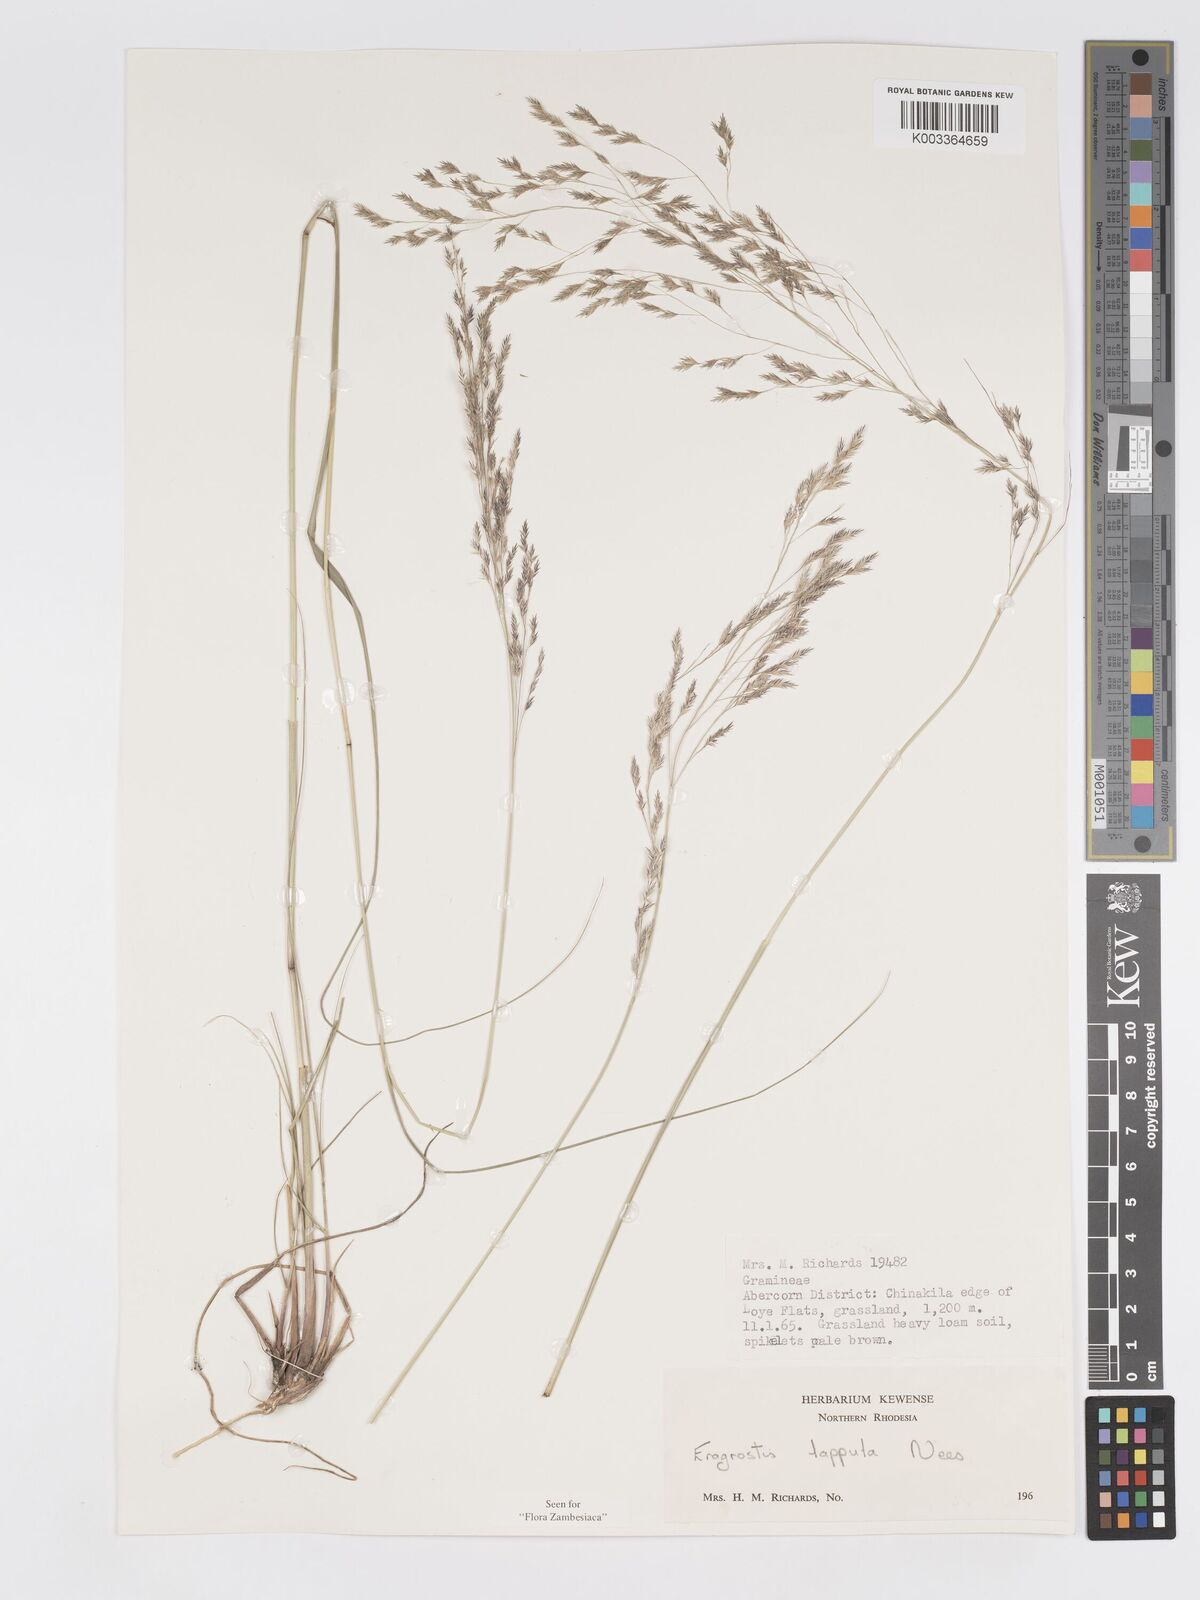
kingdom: Plantae
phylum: Tracheophyta
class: Liliopsida
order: Poales
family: Poaceae
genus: Eragrostis
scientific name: Eragrostis lappula
